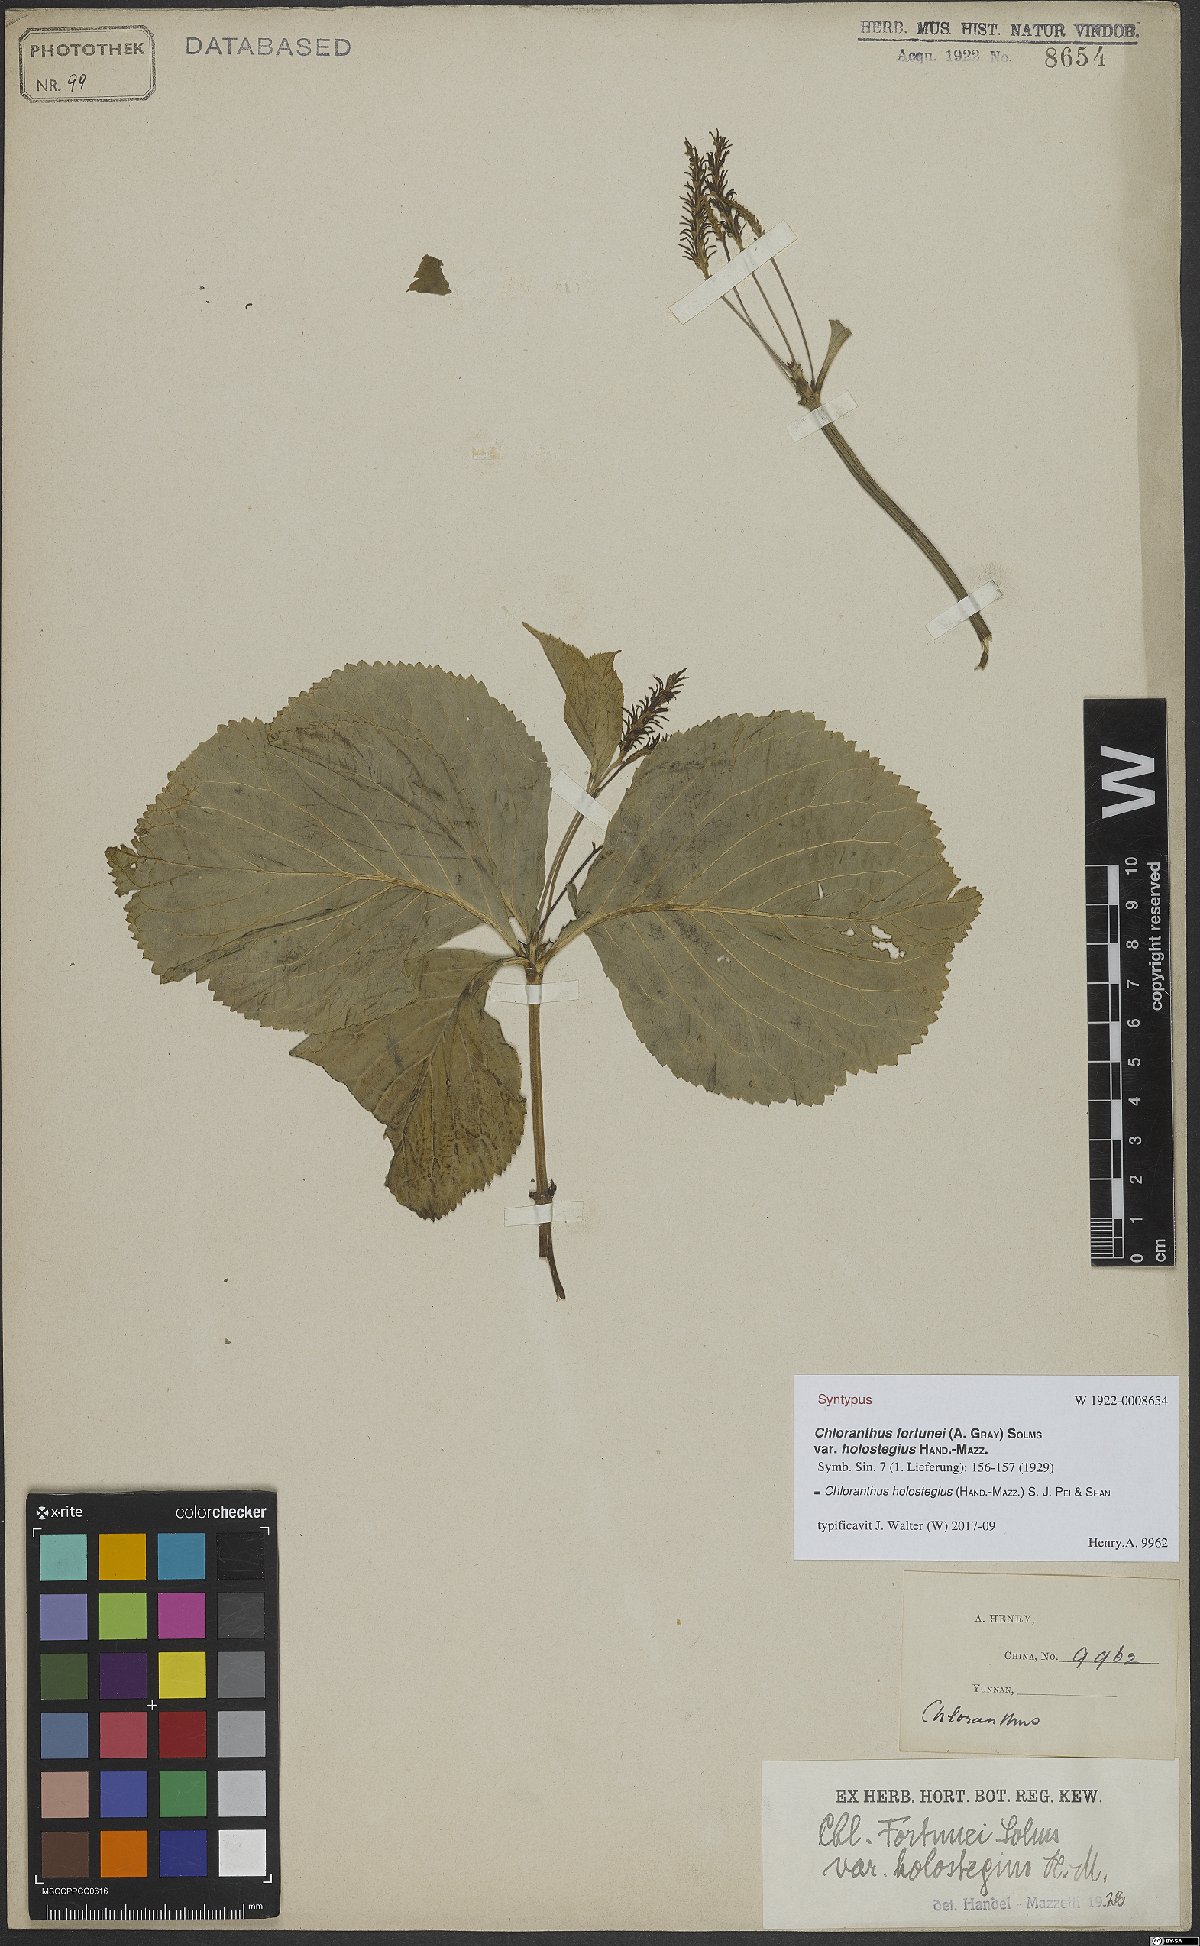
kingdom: Plantae
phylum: Tracheophyta
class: Magnoliopsida
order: Chloranthales
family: Chloranthaceae
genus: Chloranthus
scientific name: Chloranthus holostegius
